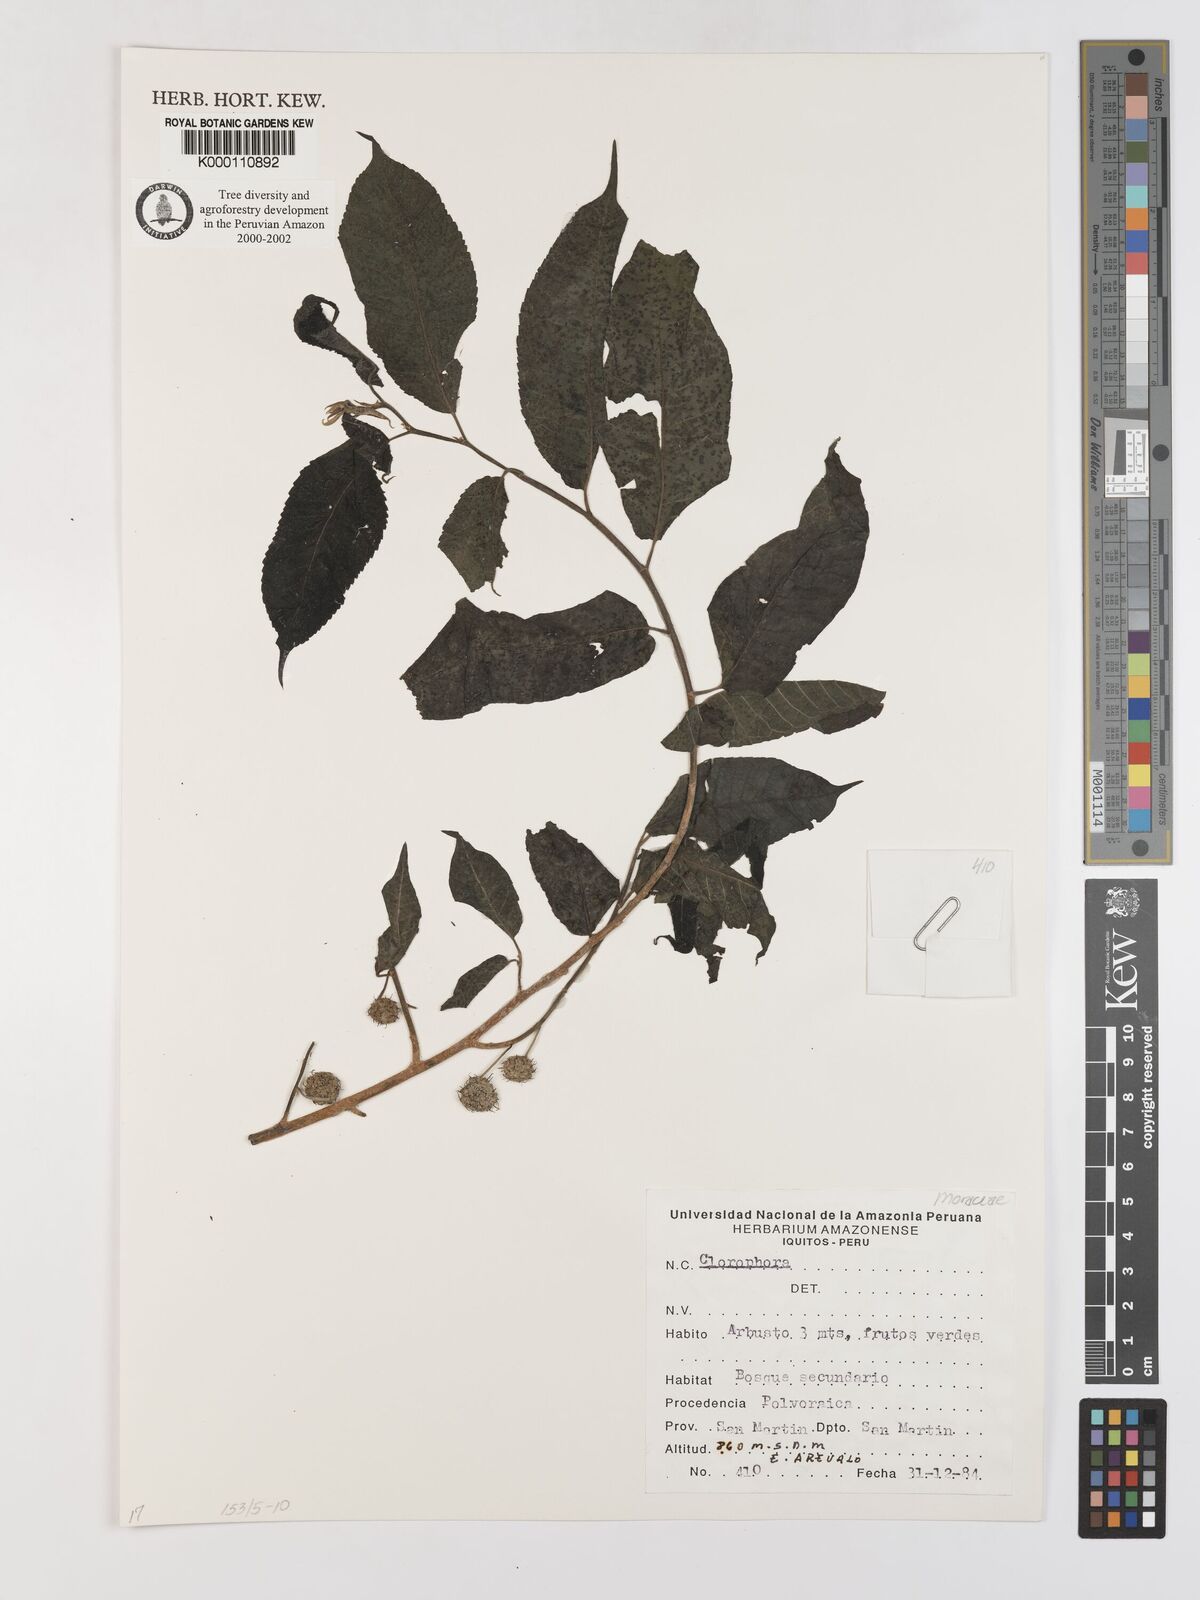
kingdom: Plantae
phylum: Tracheophyta
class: Magnoliopsida
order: Rosales
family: Moraceae
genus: Maclura
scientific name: Maclura
